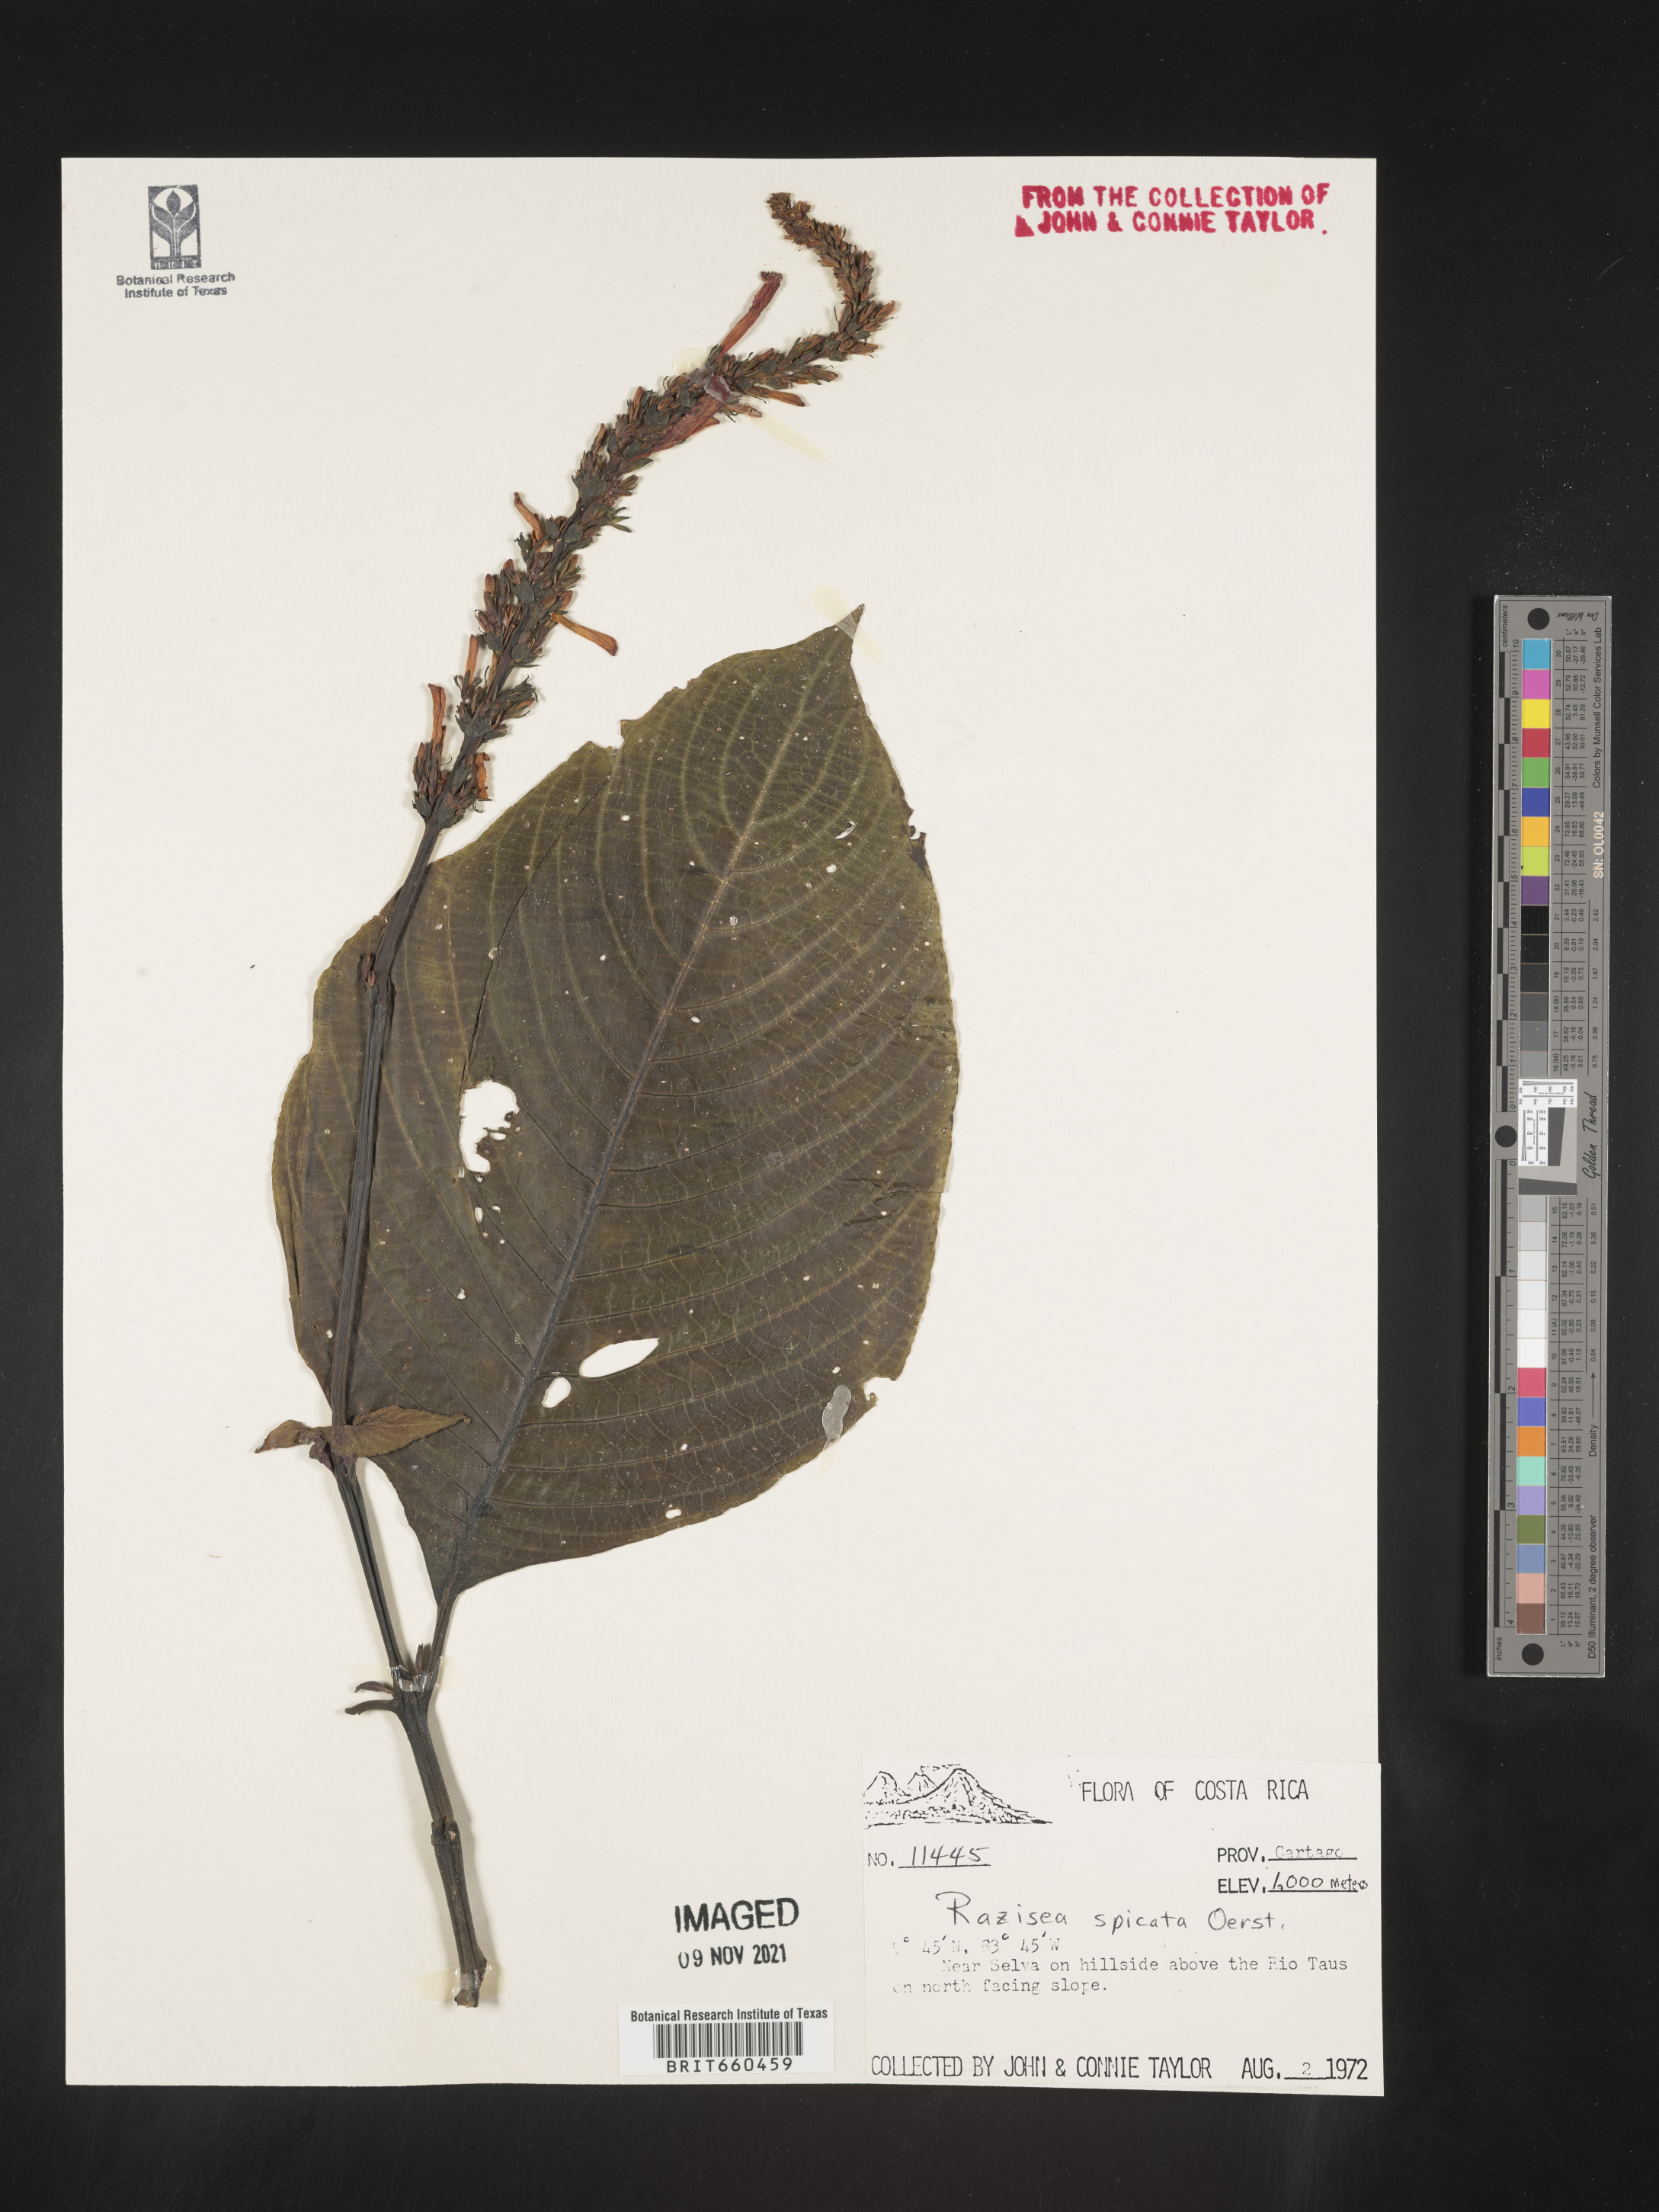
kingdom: Plantae
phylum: Tracheophyta
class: Magnoliopsida
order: Lamiales
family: Acanthaceae
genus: Stenostephanus
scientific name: Stenostephanus
